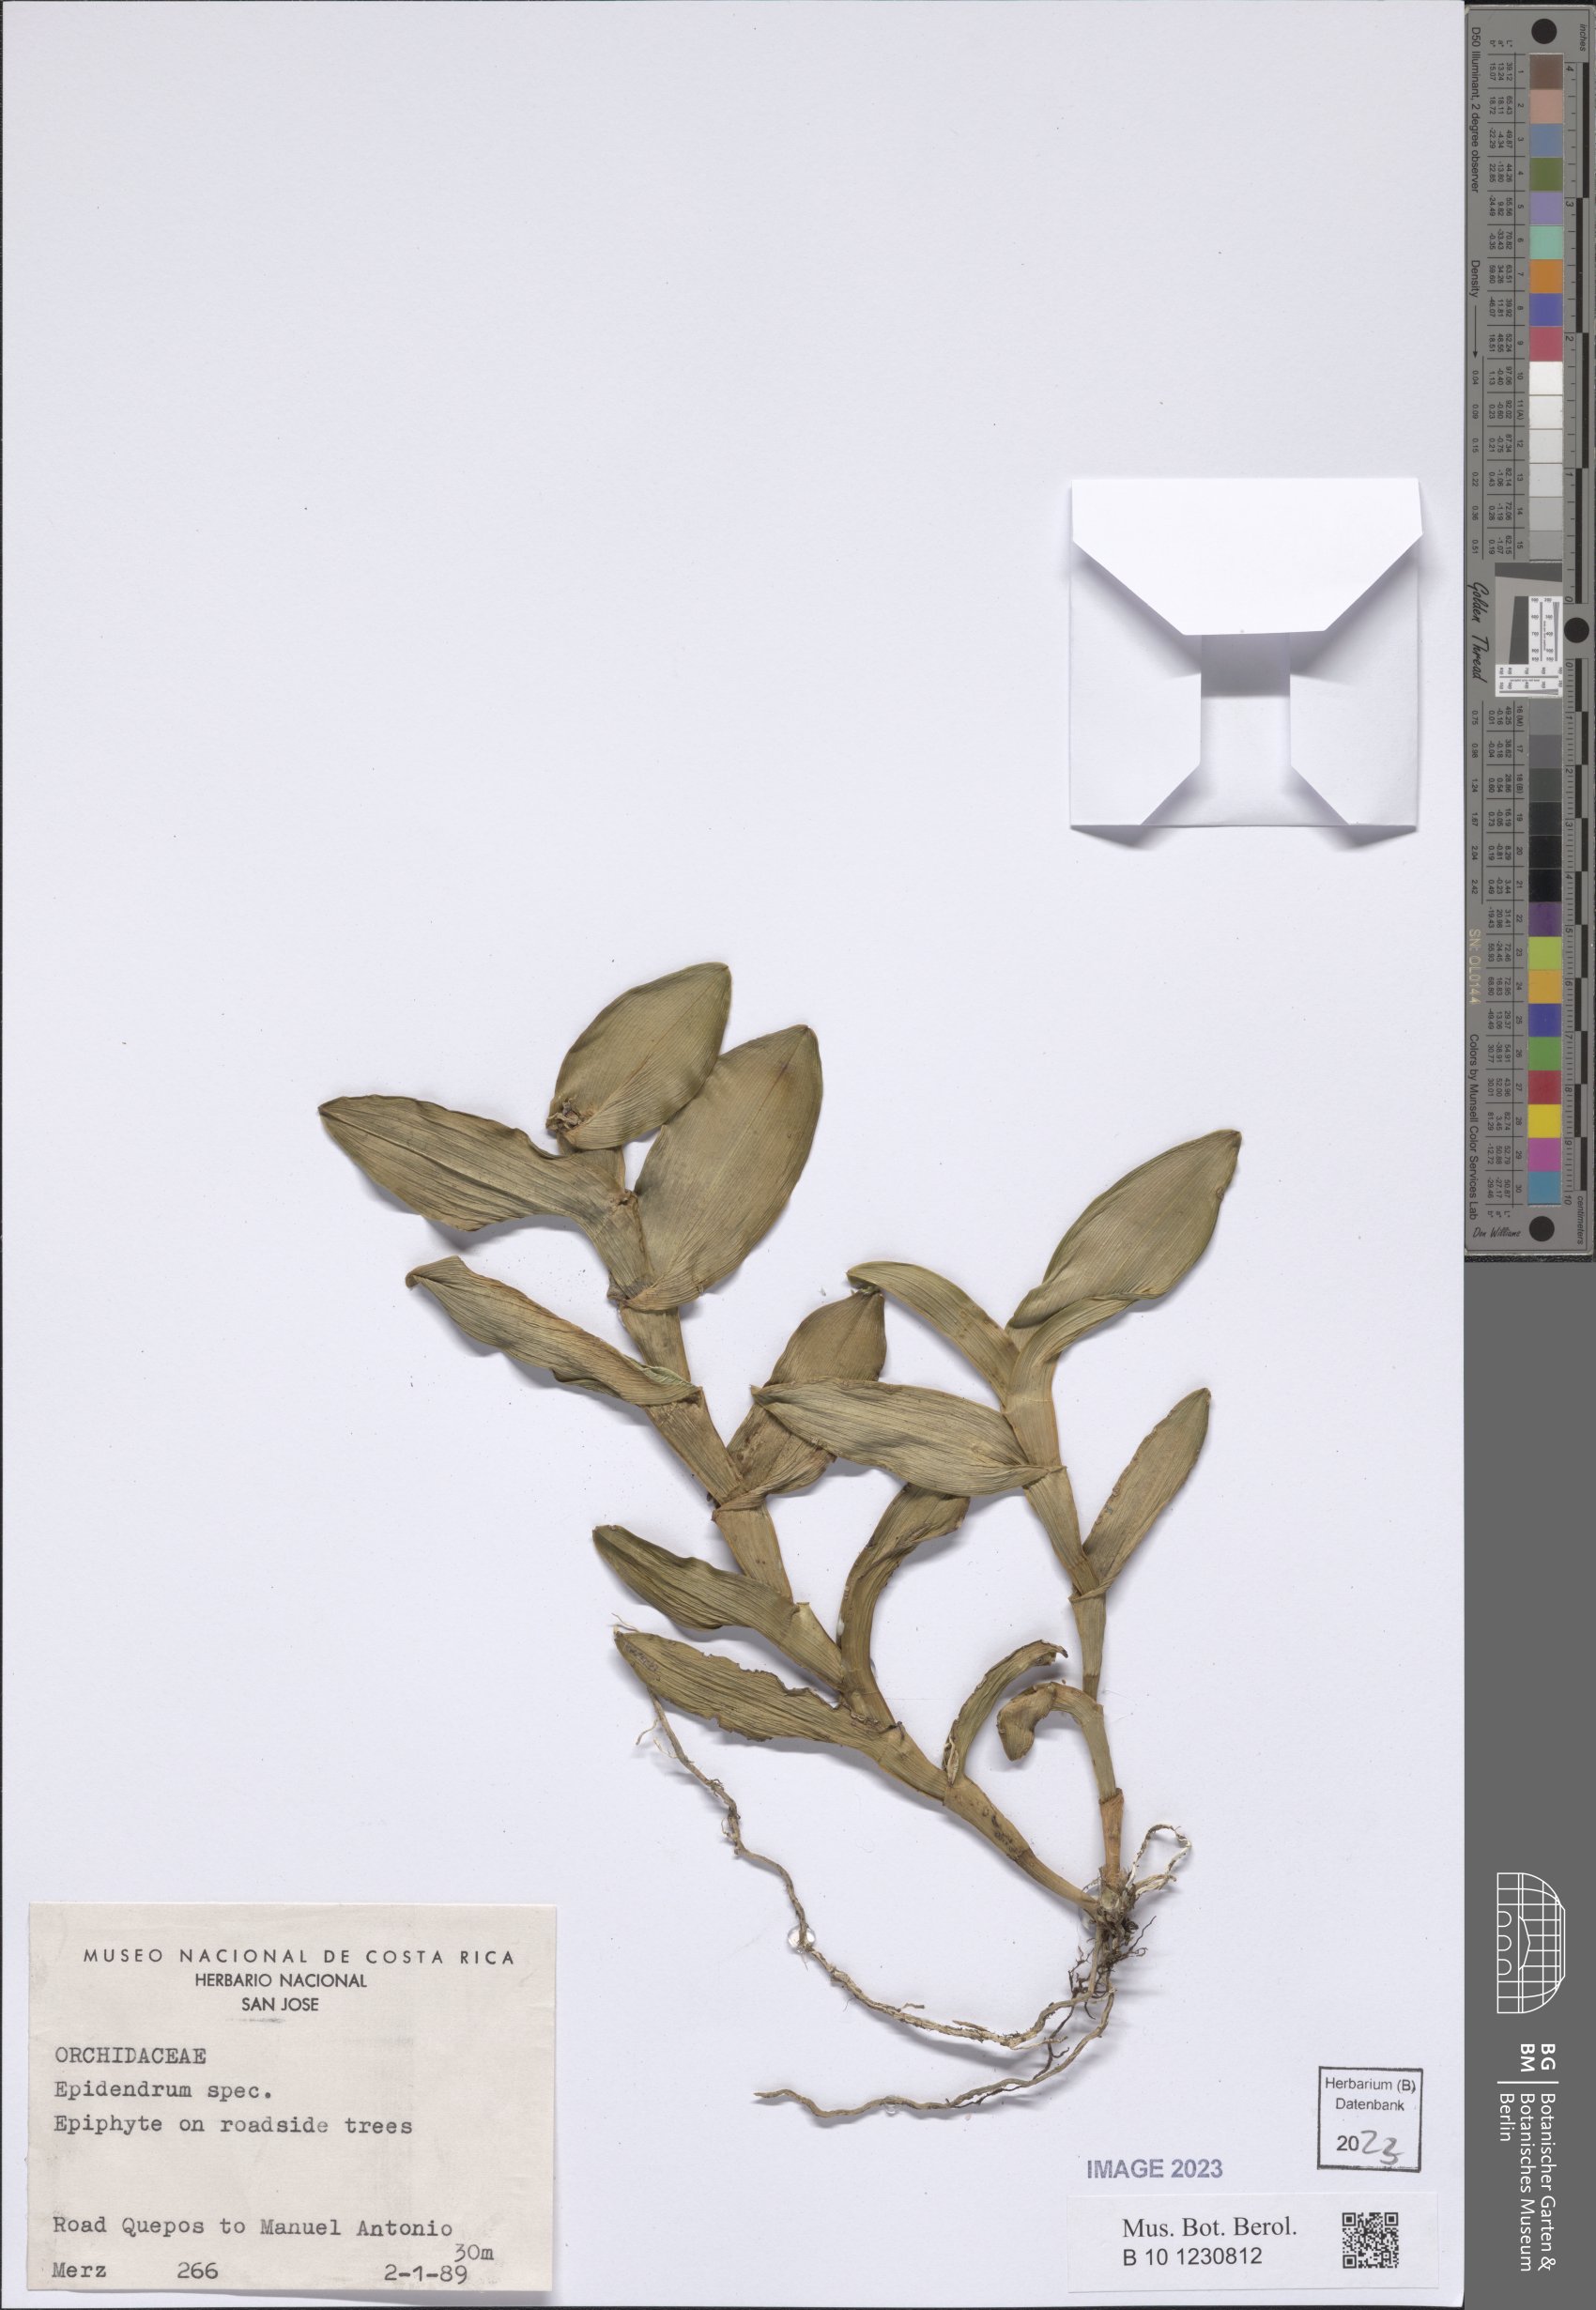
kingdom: Plantae
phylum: Tracheophyta
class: Liliopsida
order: Asparagales
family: Orchidaceae
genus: Epidendrum
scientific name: Epidendrum
